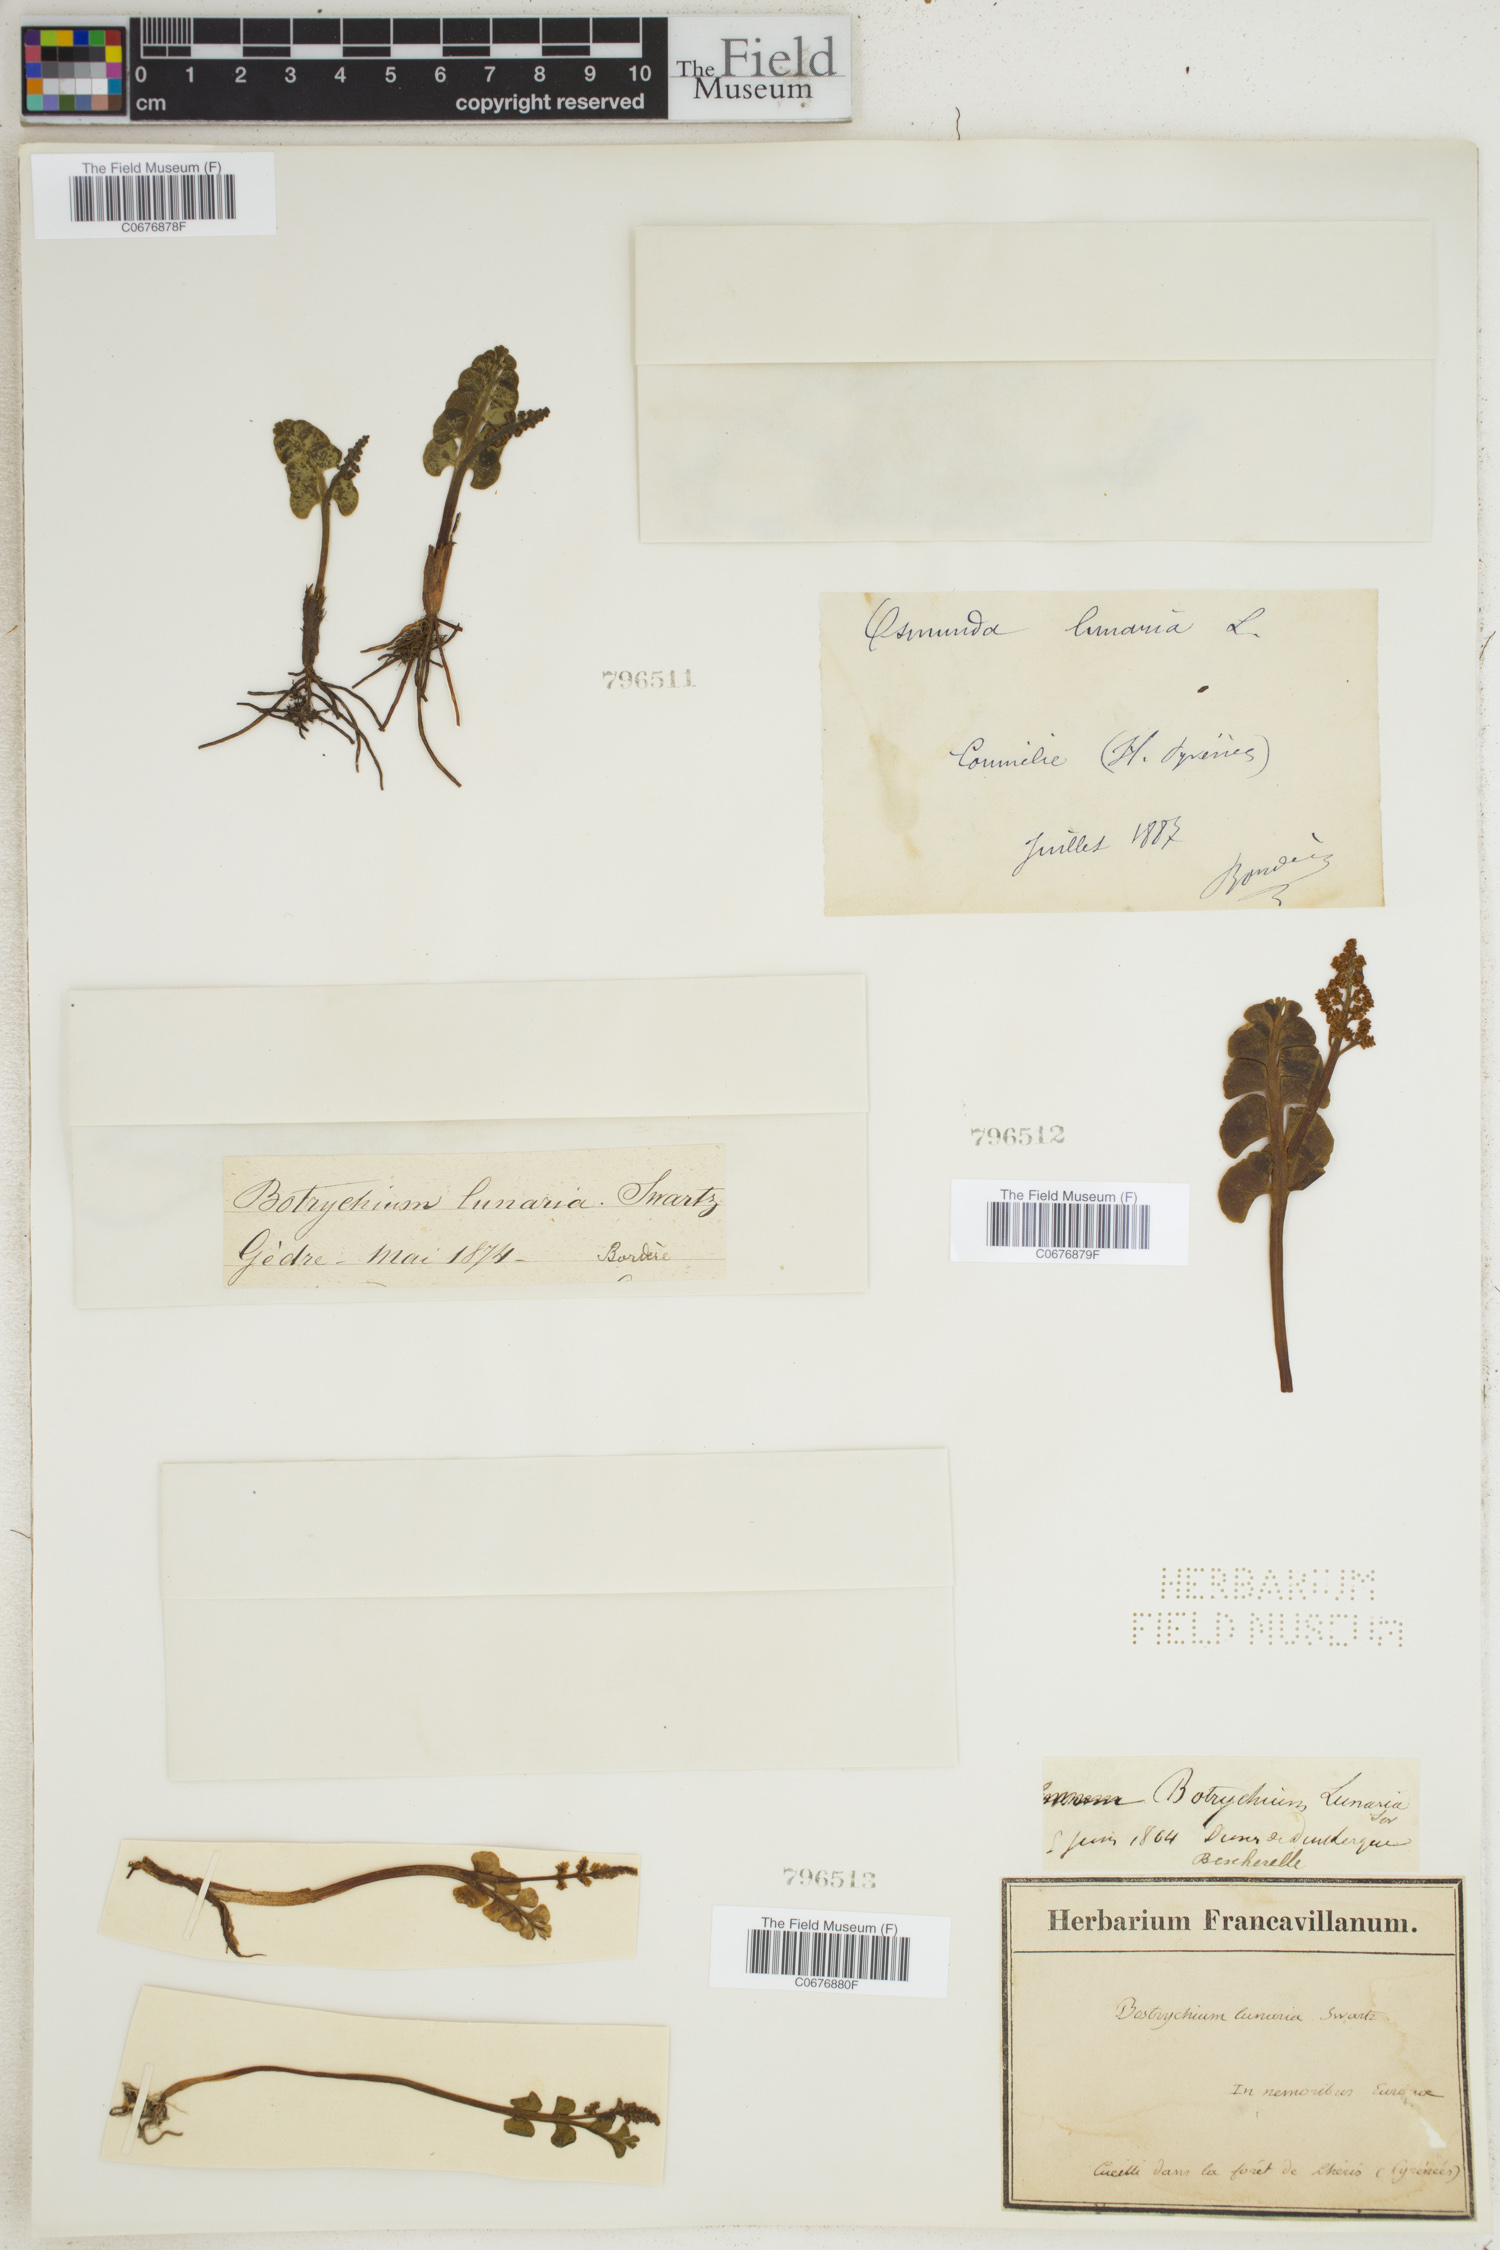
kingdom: Plantae
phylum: Tracheophyta
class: Polypodiopsida
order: Ophioglossales
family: Ophioglossaceae
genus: Botrychium
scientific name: Botrychium lunaria
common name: Moonwort
